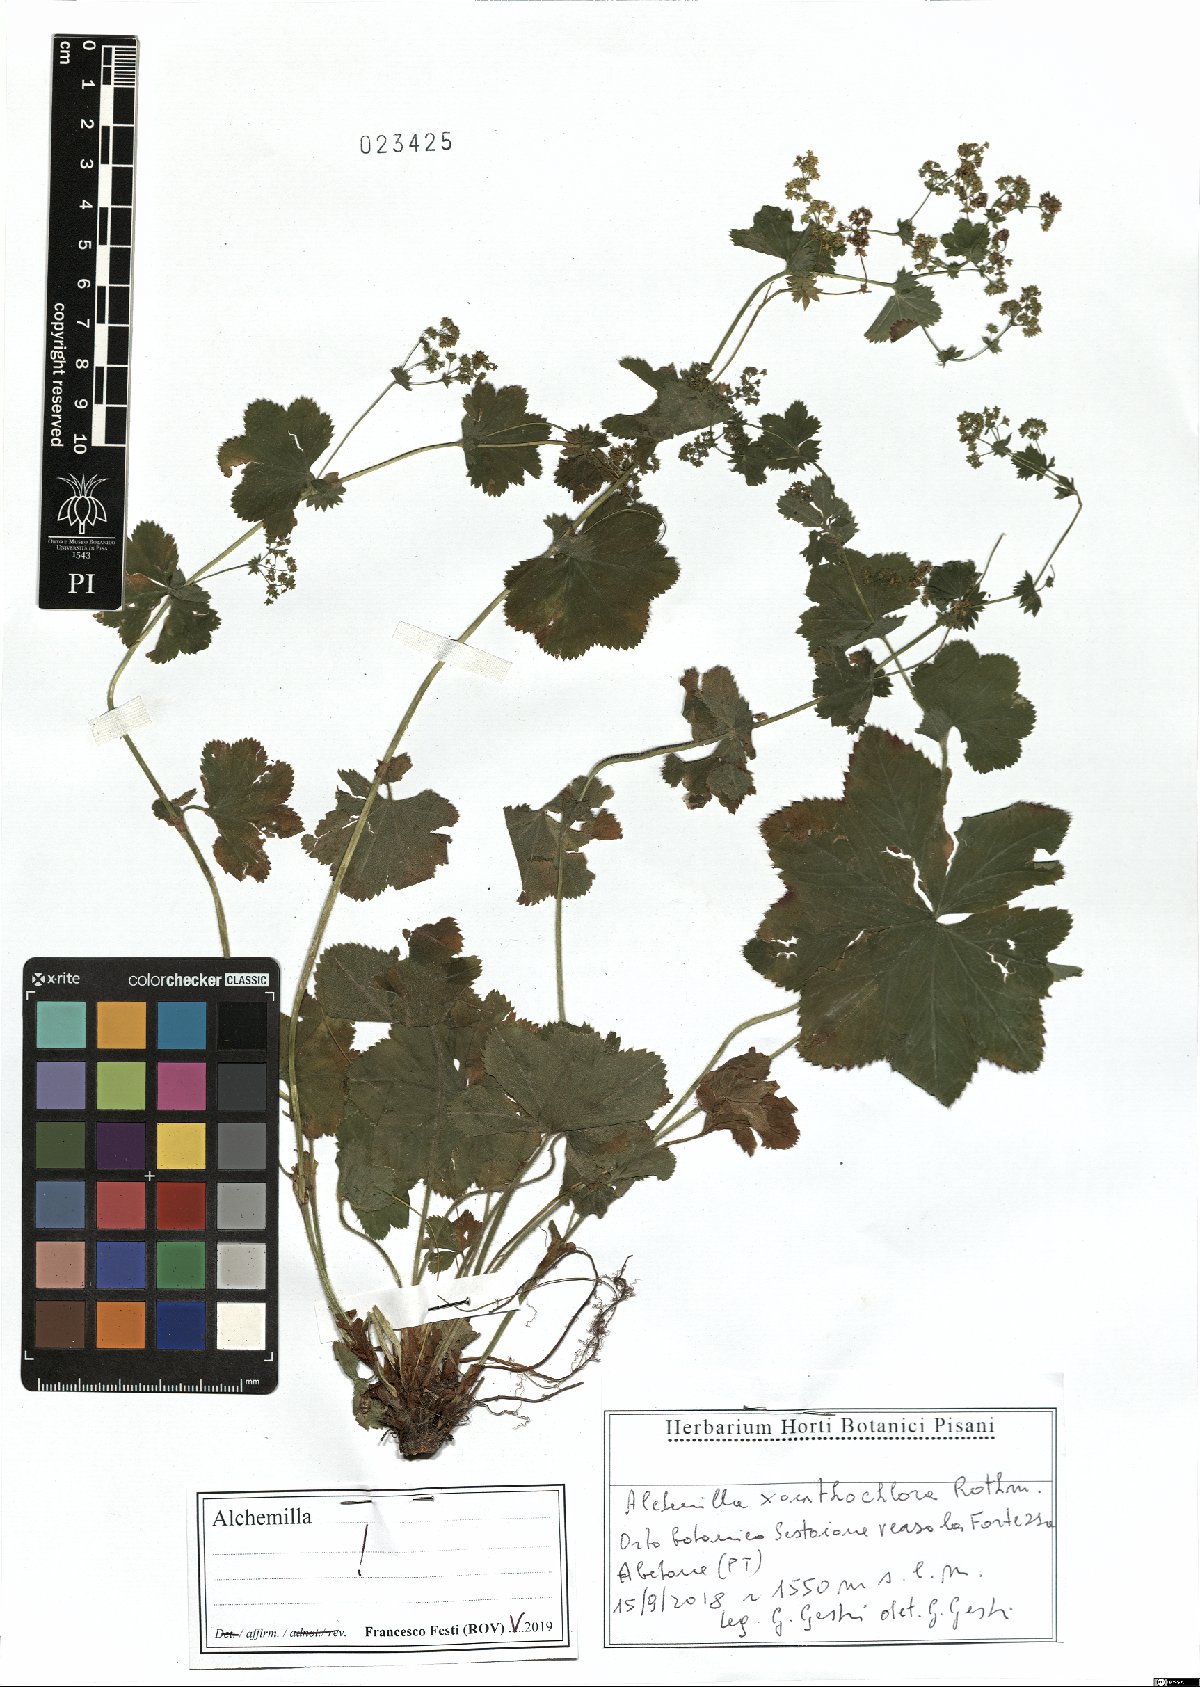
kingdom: Plantae
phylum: Tracheophyta
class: Magnoliopsida
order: Rosales
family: Rosaceae
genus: Alchemilla
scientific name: Alchemilla xanthochlora
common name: Intermediate lady's-mantle
